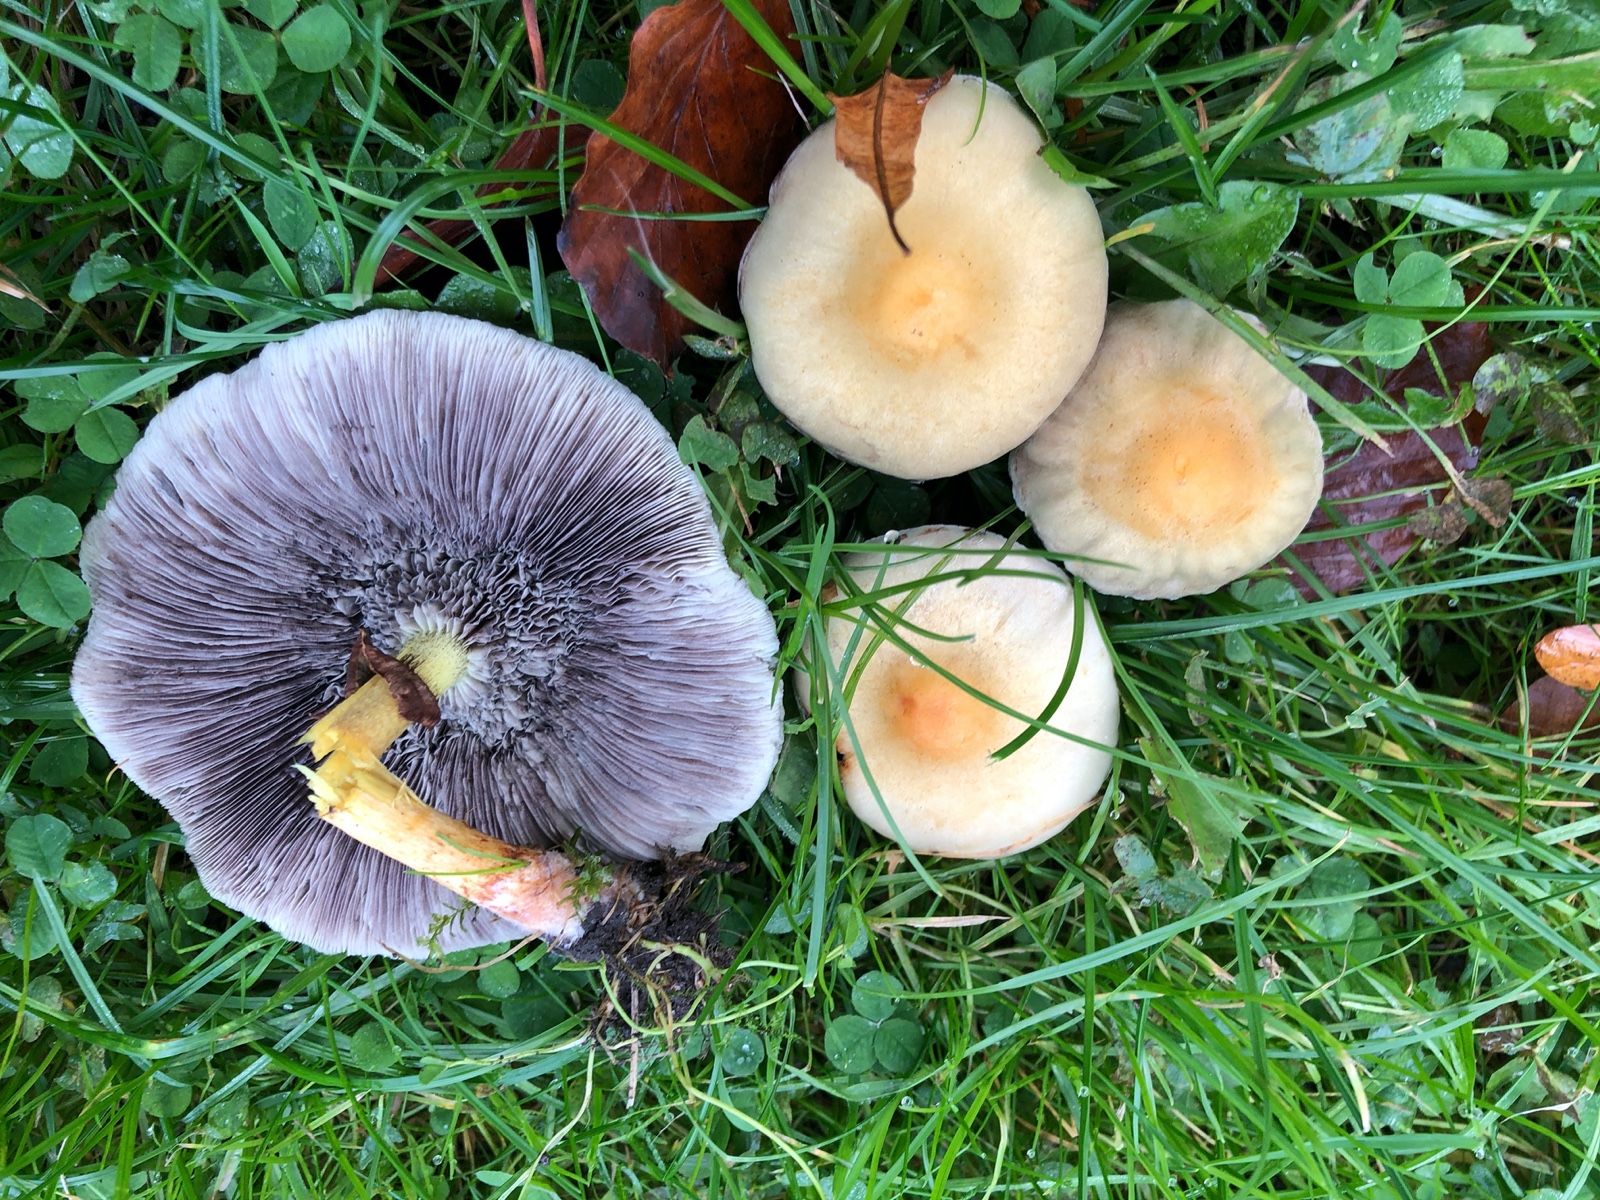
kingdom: Fungi
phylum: Basidiomycota
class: Agaricomycetes
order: Agaricales
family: Strophariaceae
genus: Hypholoma
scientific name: Hypholoma fasciculare
